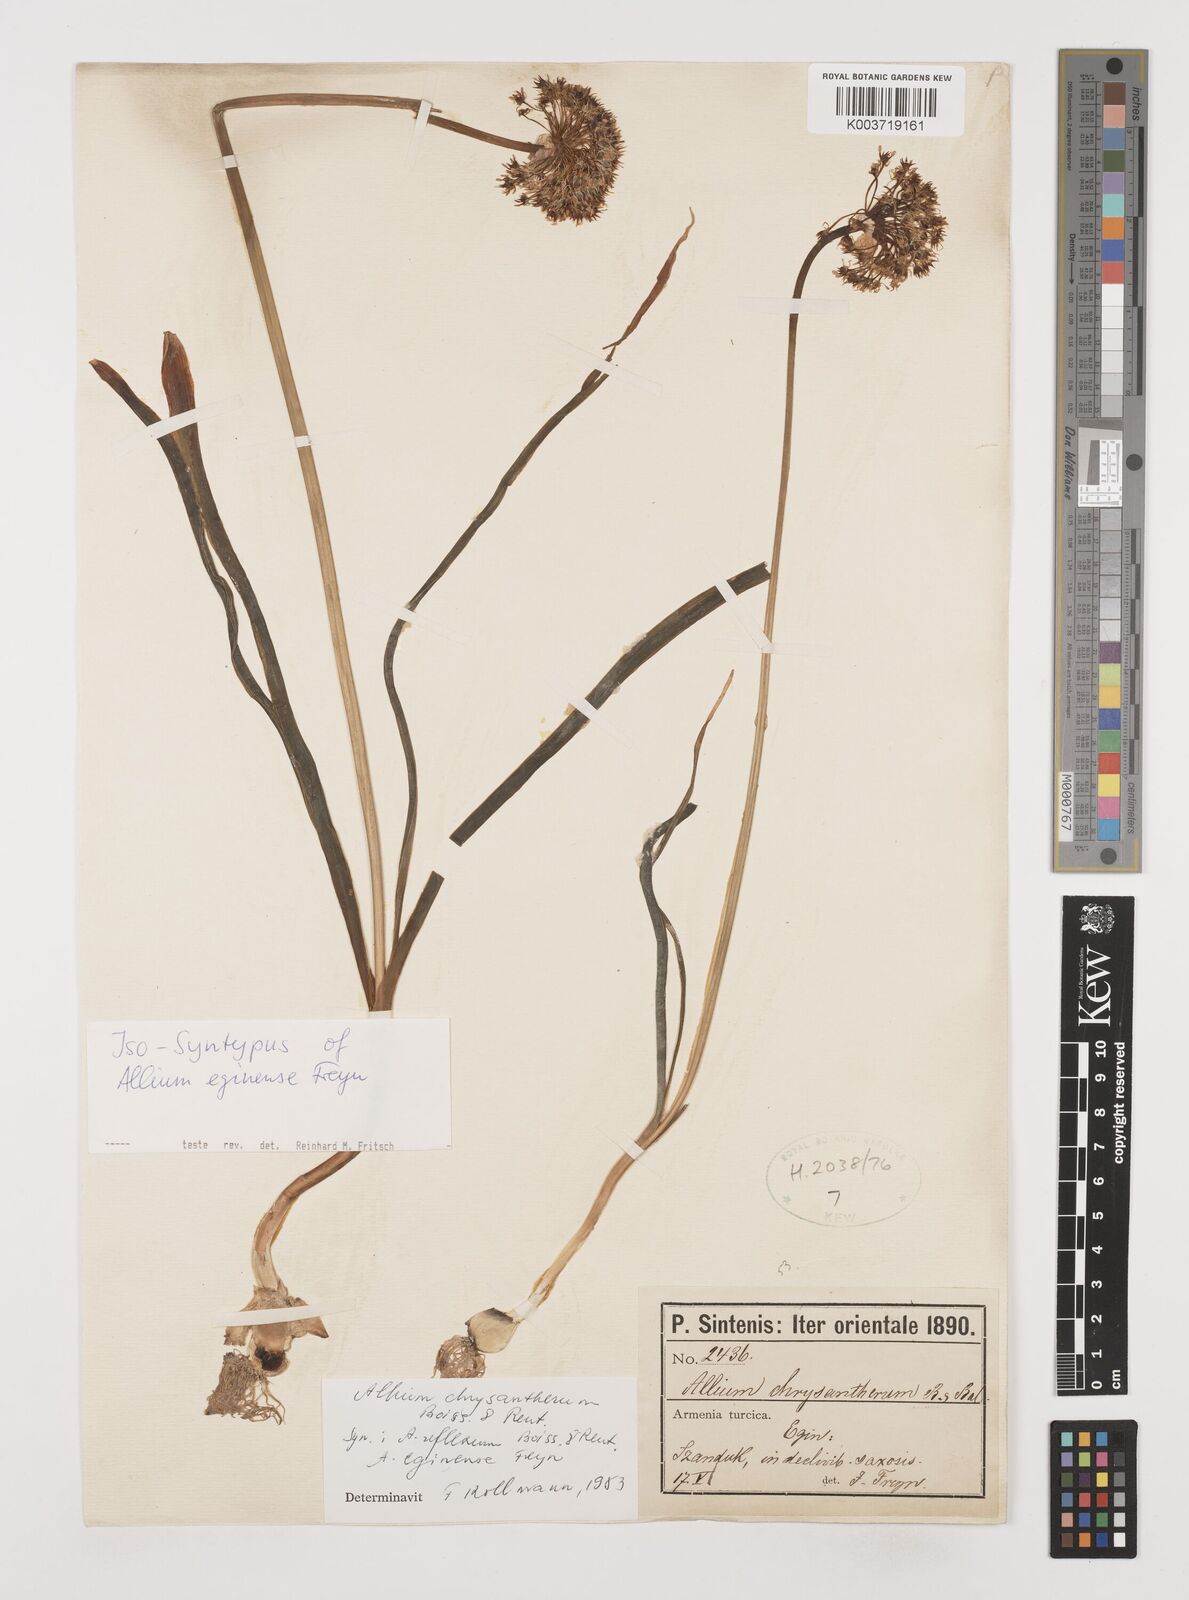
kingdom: Plantae
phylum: Tracheophyta
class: Liliopsida
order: Asparagales
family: Amaryllidaceae
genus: Allium
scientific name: Allium chrysantherum
